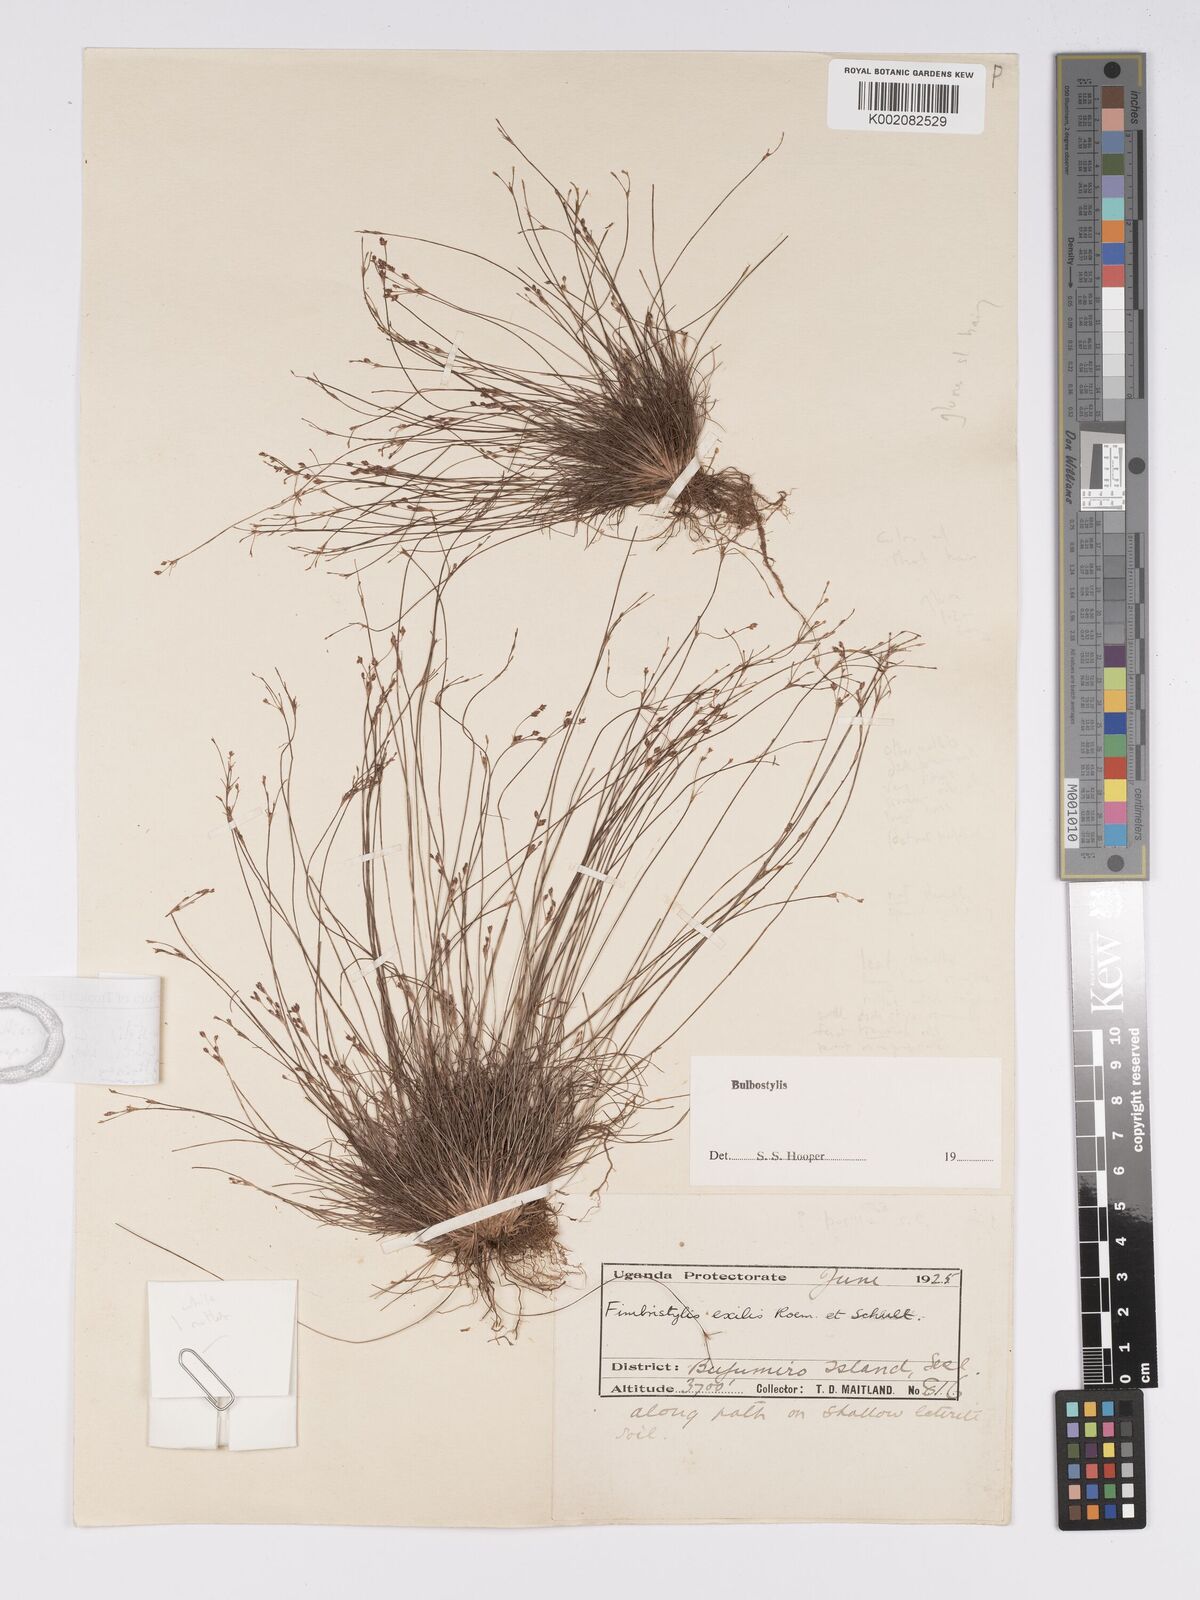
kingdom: Plantae
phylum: Tracheophyta
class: Liliopsida
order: Poales
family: Cyperaceae
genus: Bulbostylis
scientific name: Bulbostylis pusilla
